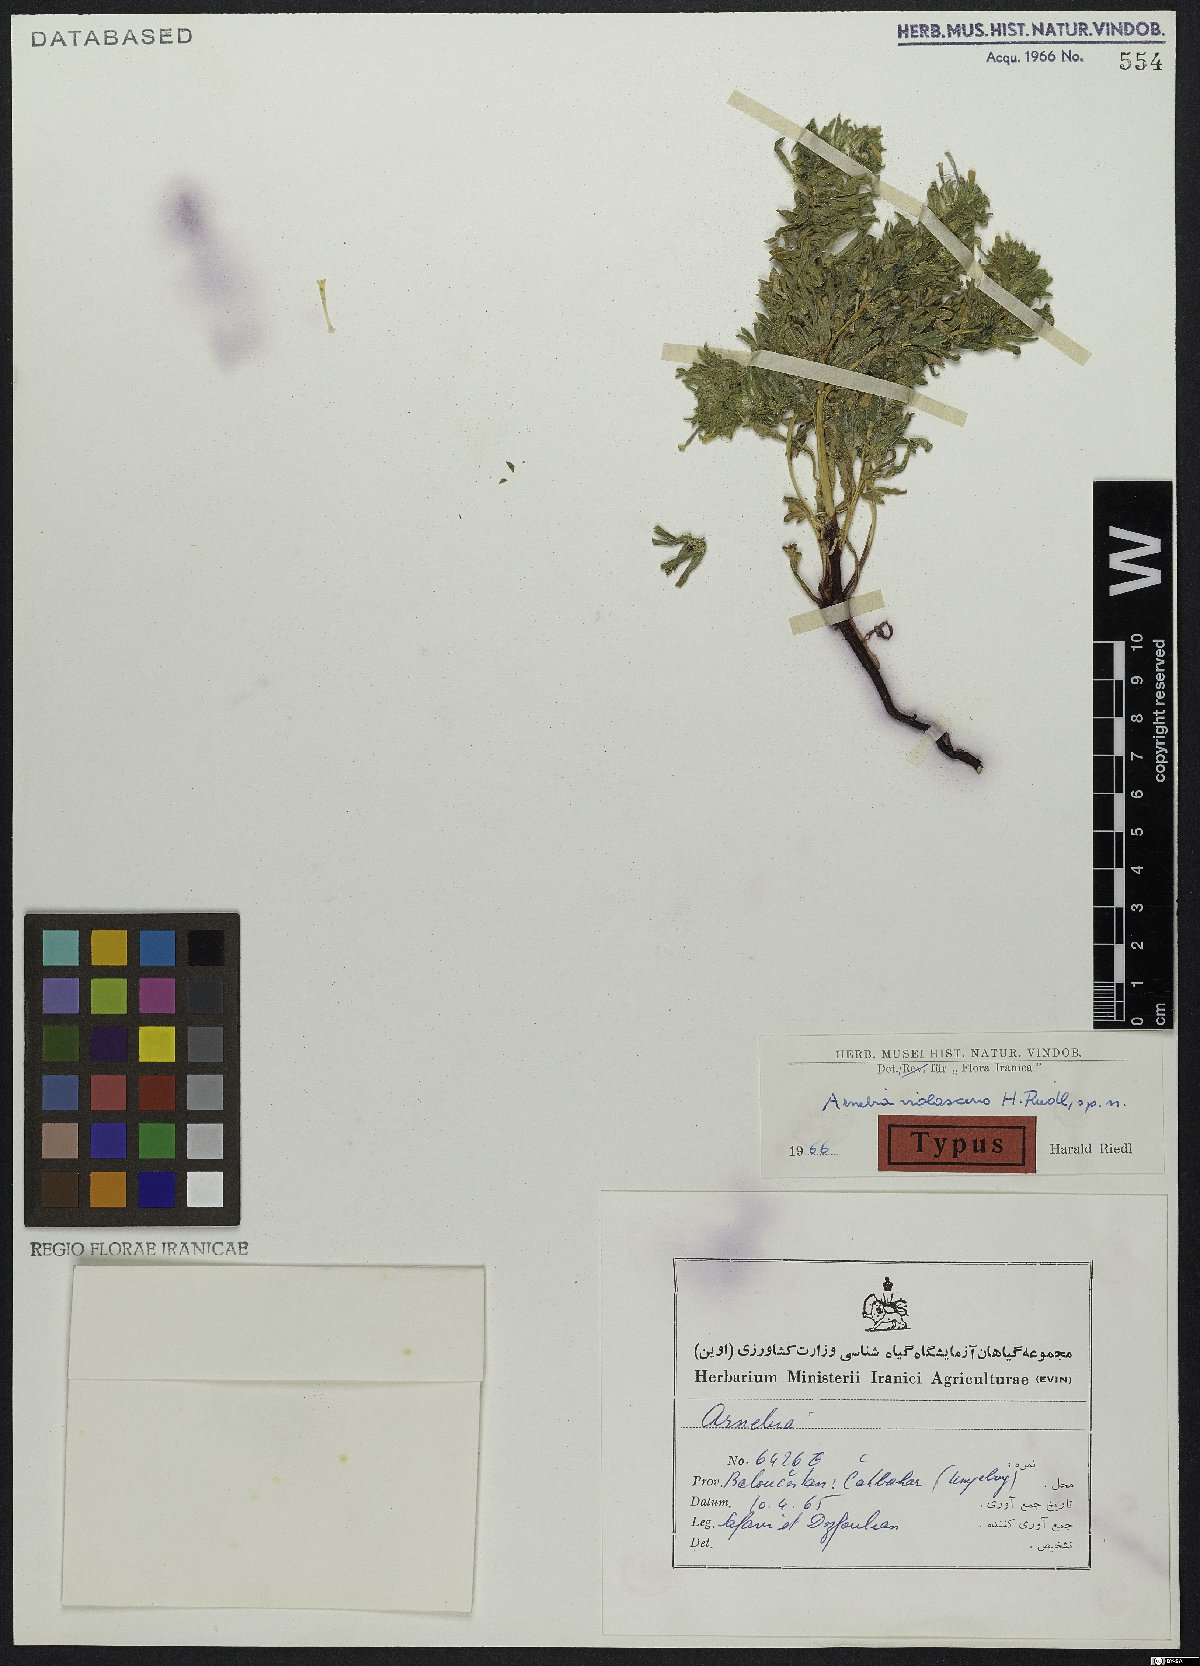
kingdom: Plantae
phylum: Tracheophyta
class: Magnoliopsida
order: Boraginales
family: Boraginaceae
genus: Arnebia
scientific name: Arnebia violascens
